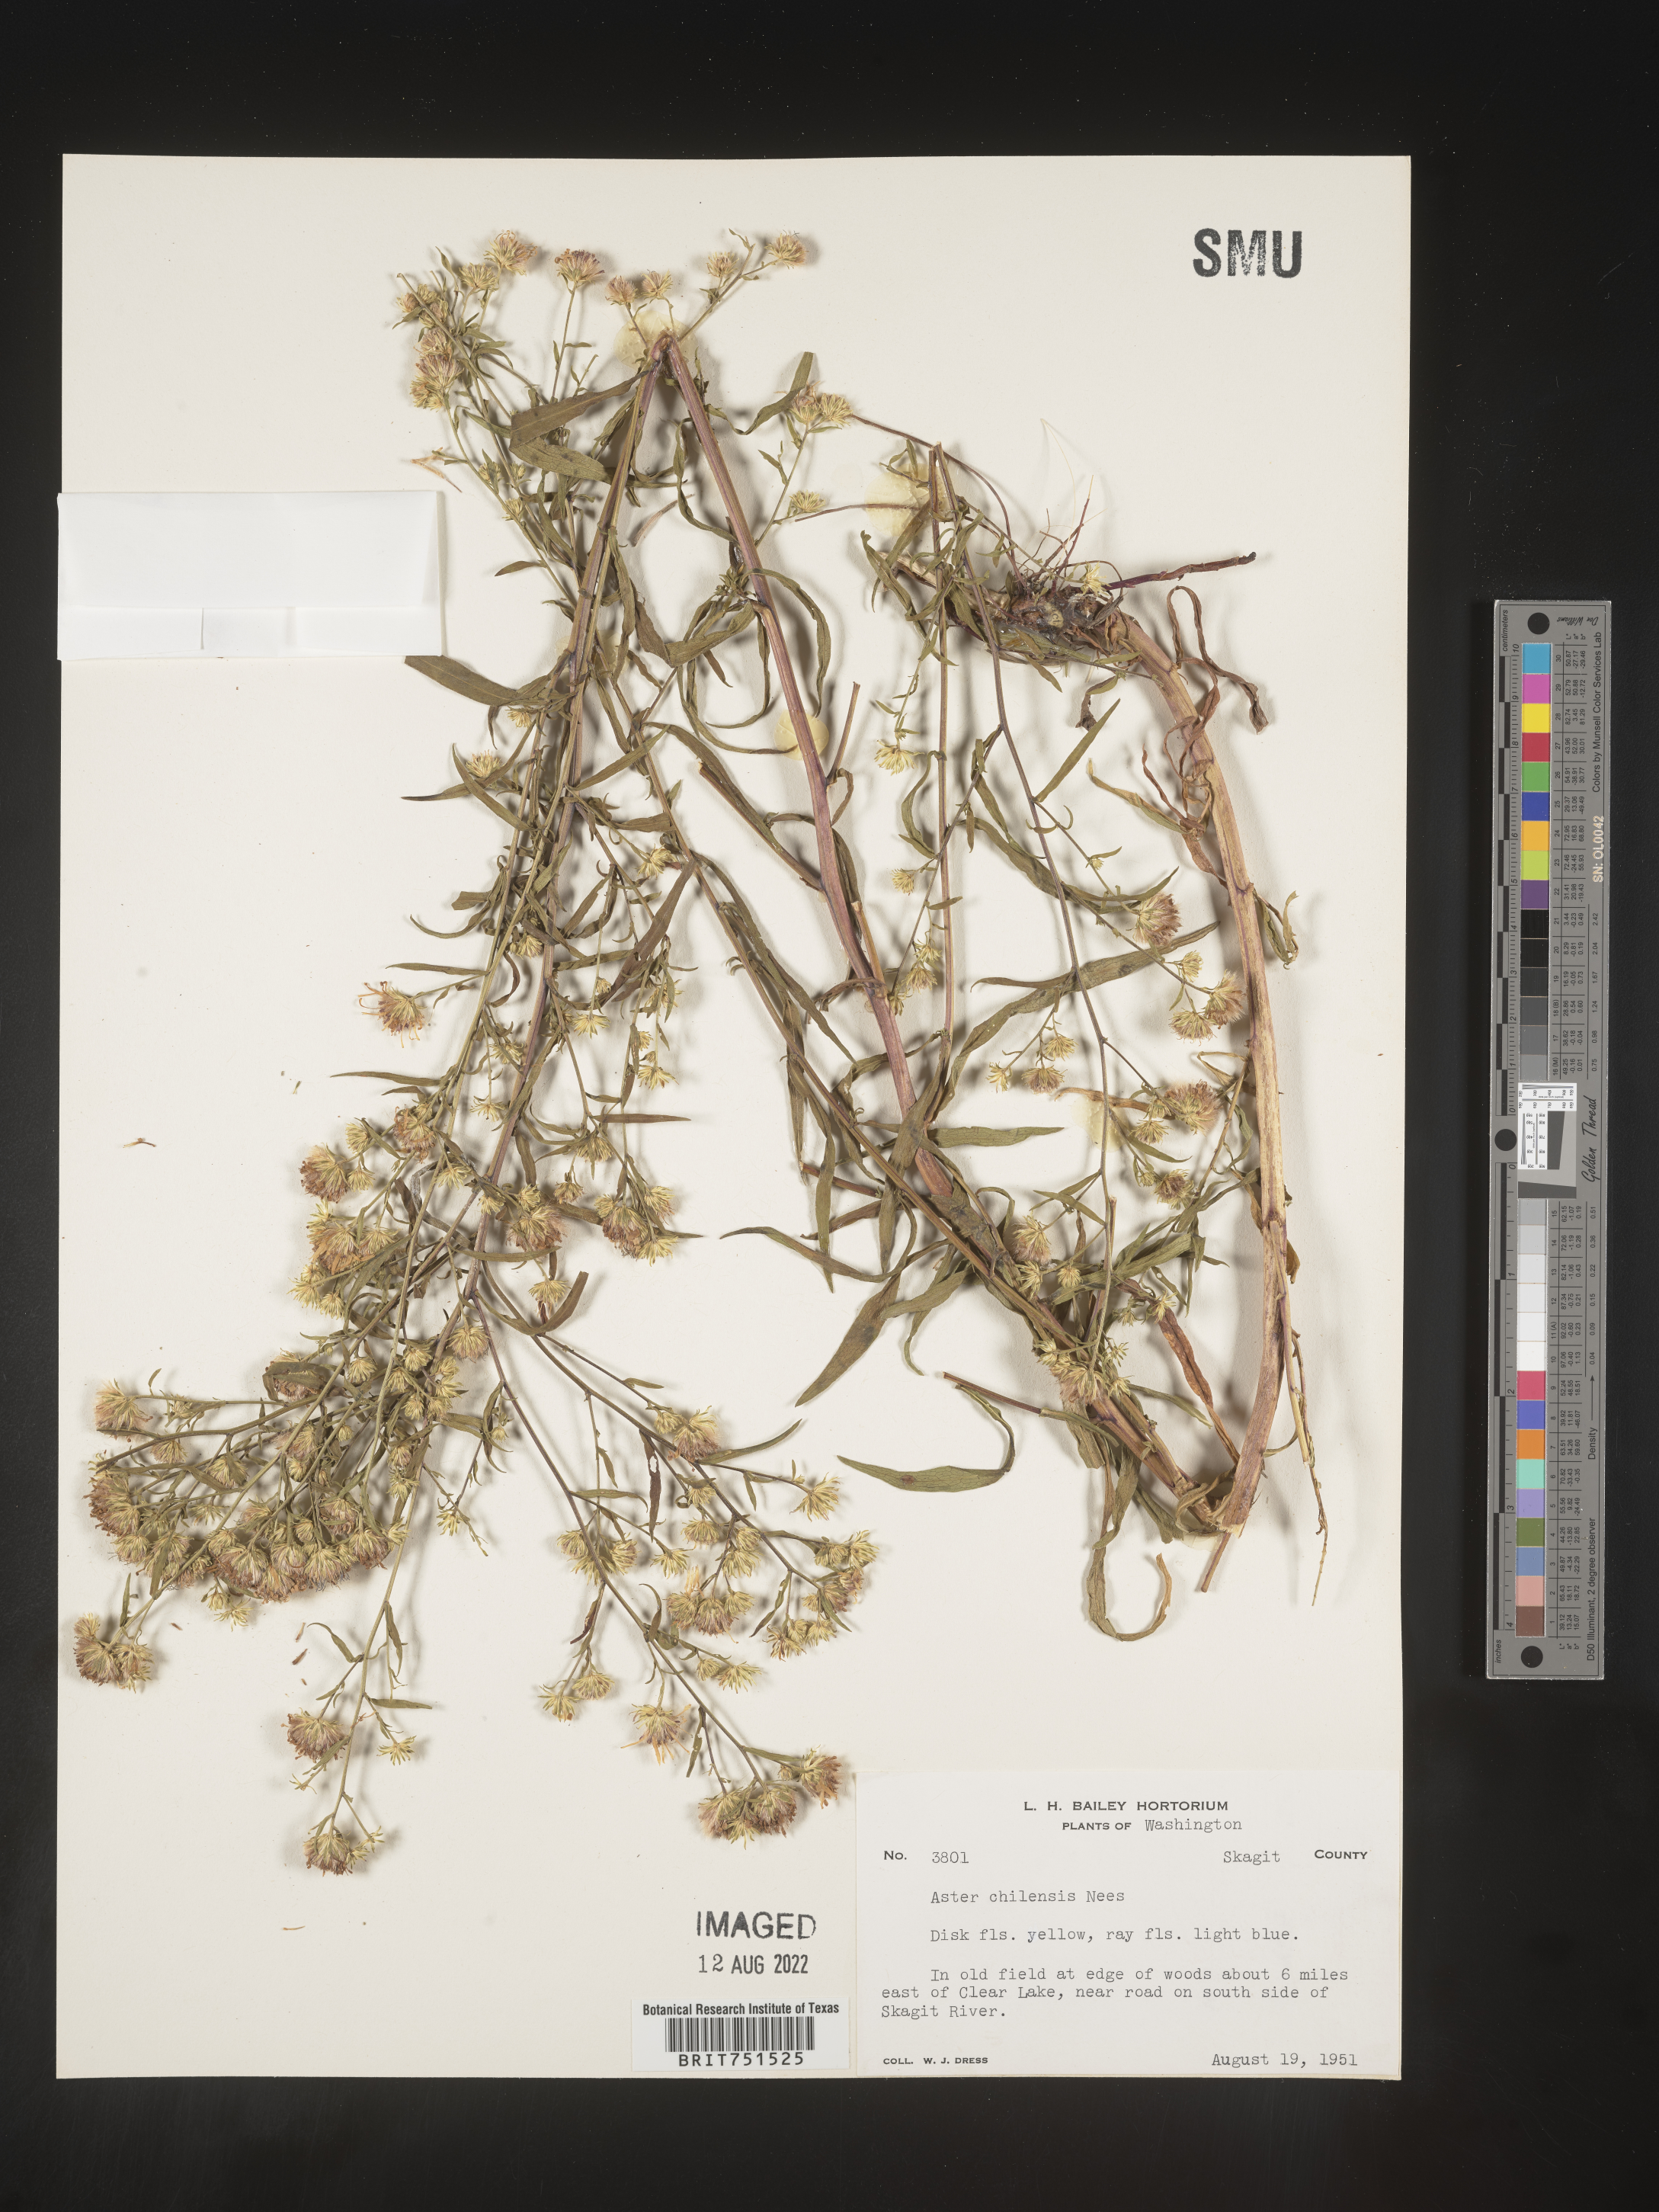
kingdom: Plantae
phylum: Tracheophyta
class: Magnoliopsida
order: Asterales
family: Asteraceae
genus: Symphyotrichum
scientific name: Symphyotrichum chilense
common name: Pacific aster
